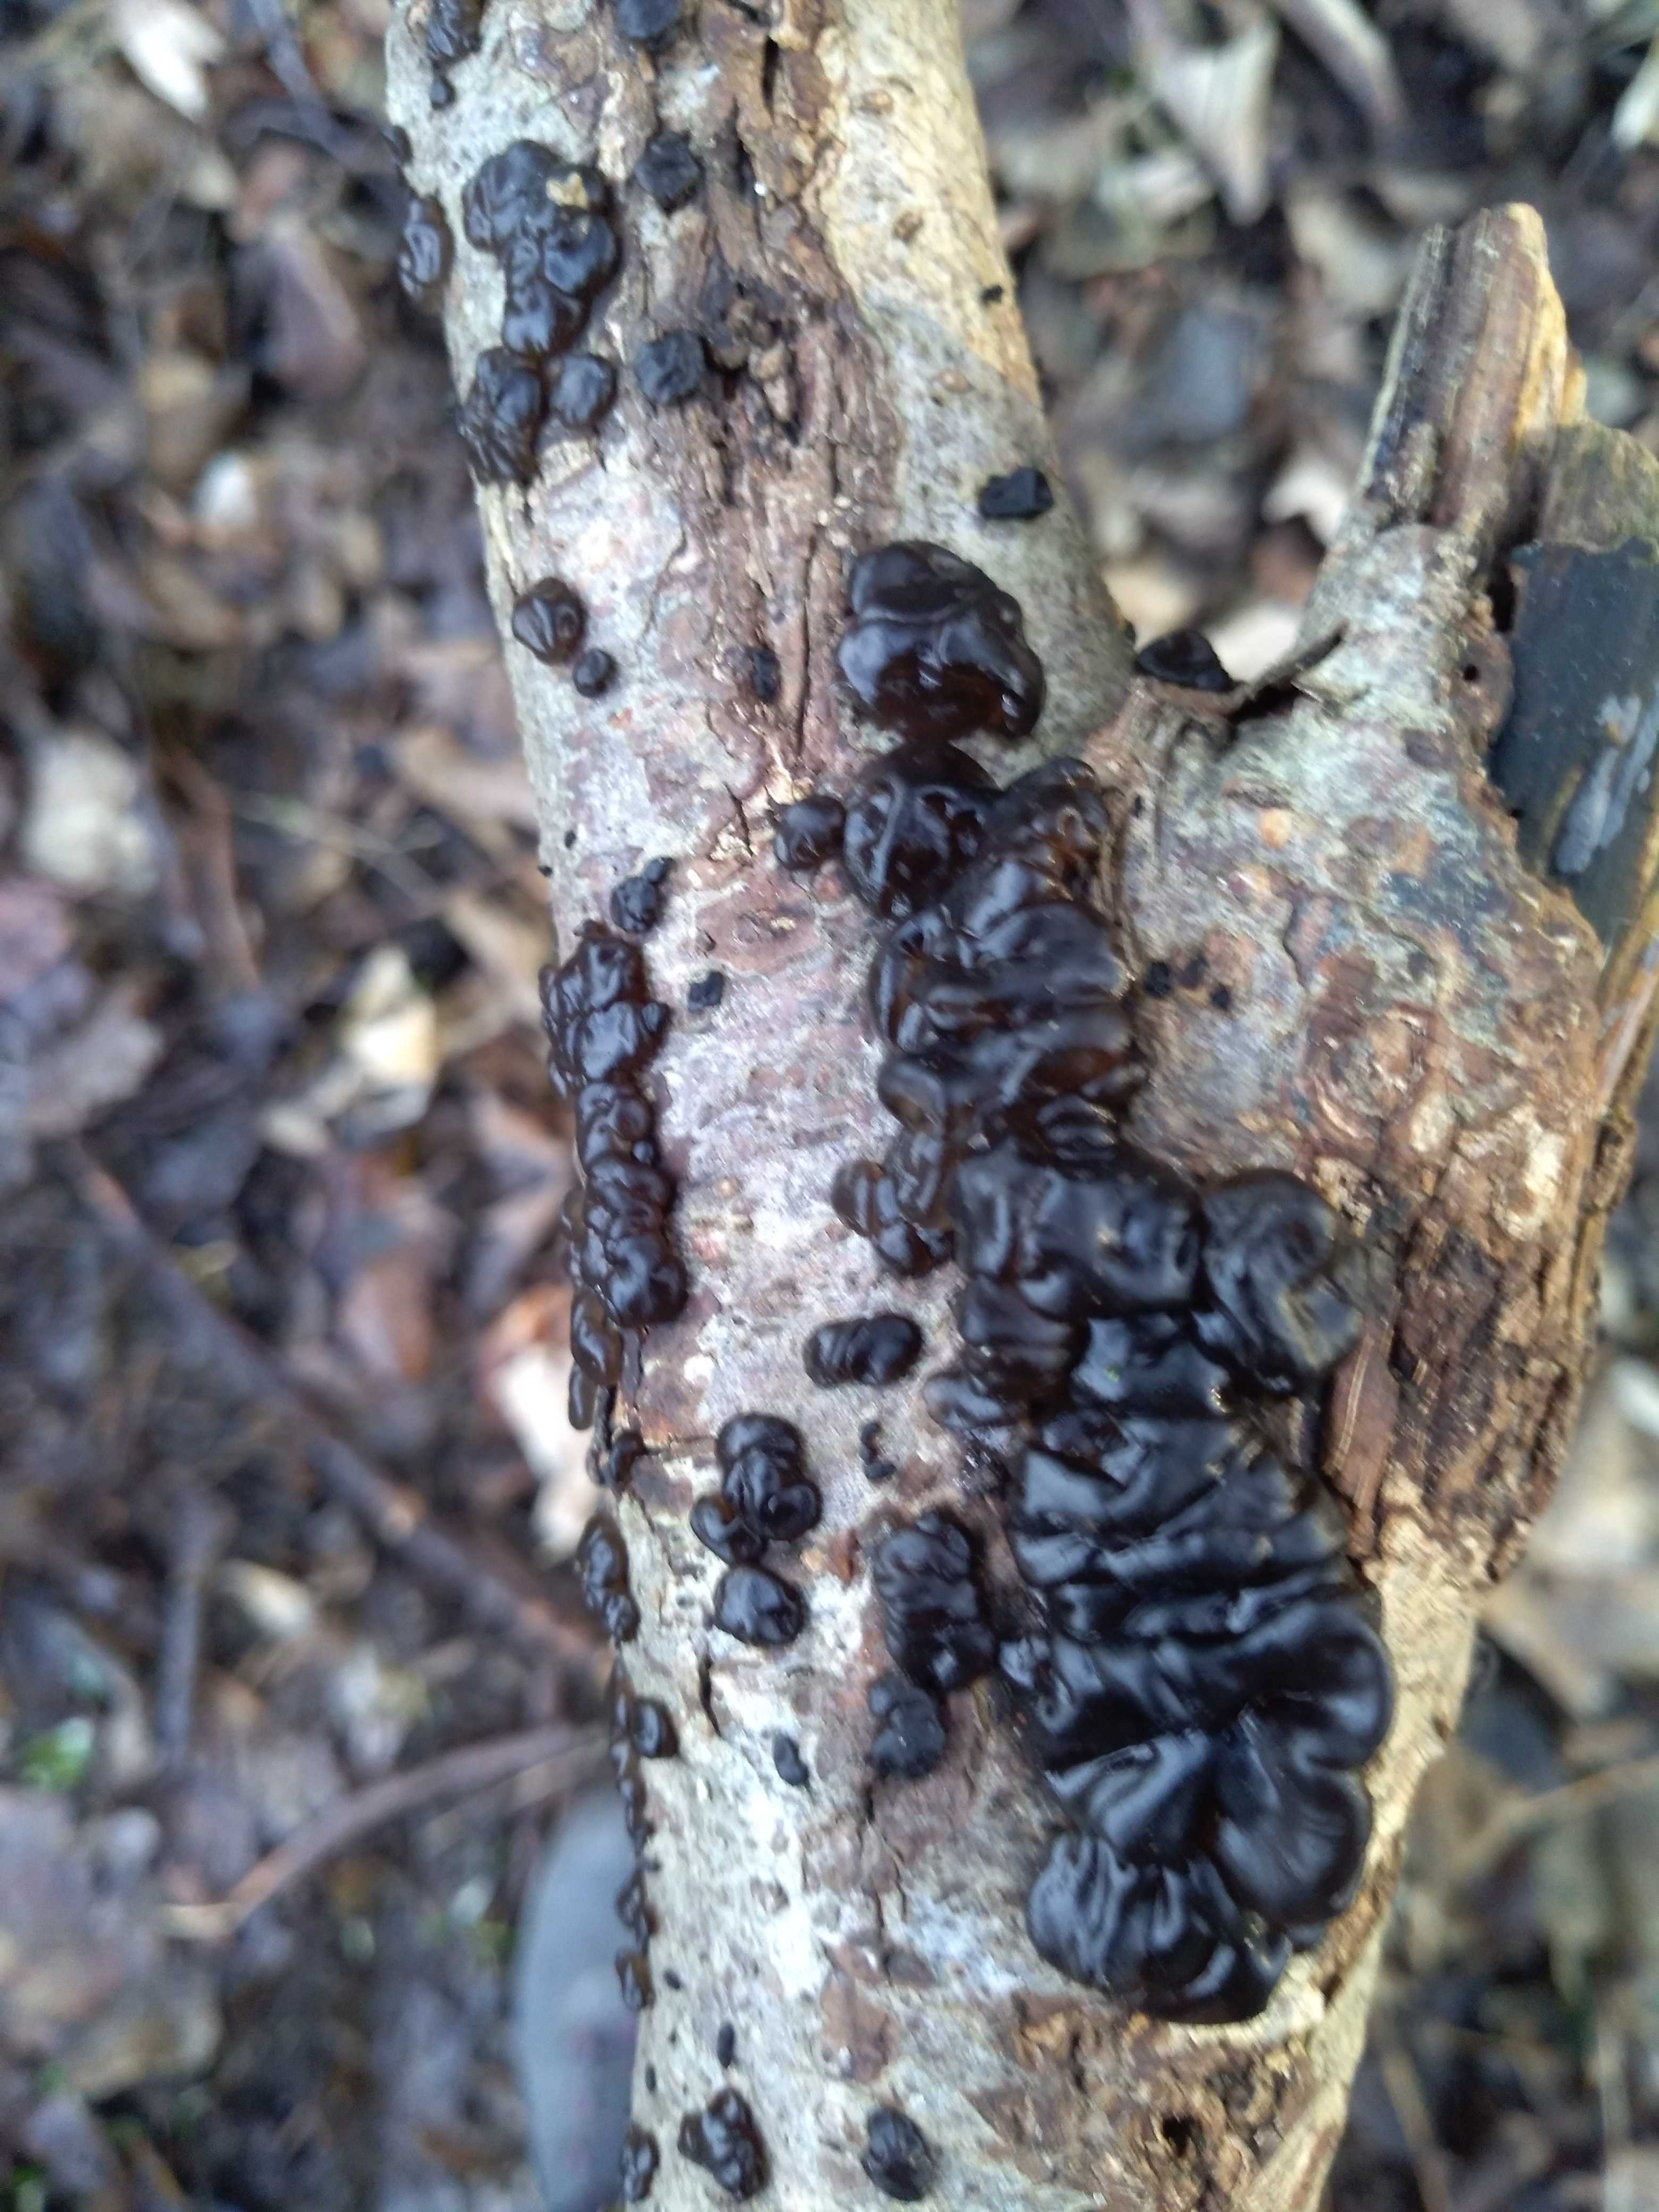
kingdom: Fungi
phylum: Basidiomycota
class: Agaricomycetes
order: Auriculariales
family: Auriculariaceae
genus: Exidia
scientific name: Exidia nigricans
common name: almindelig bævretop
